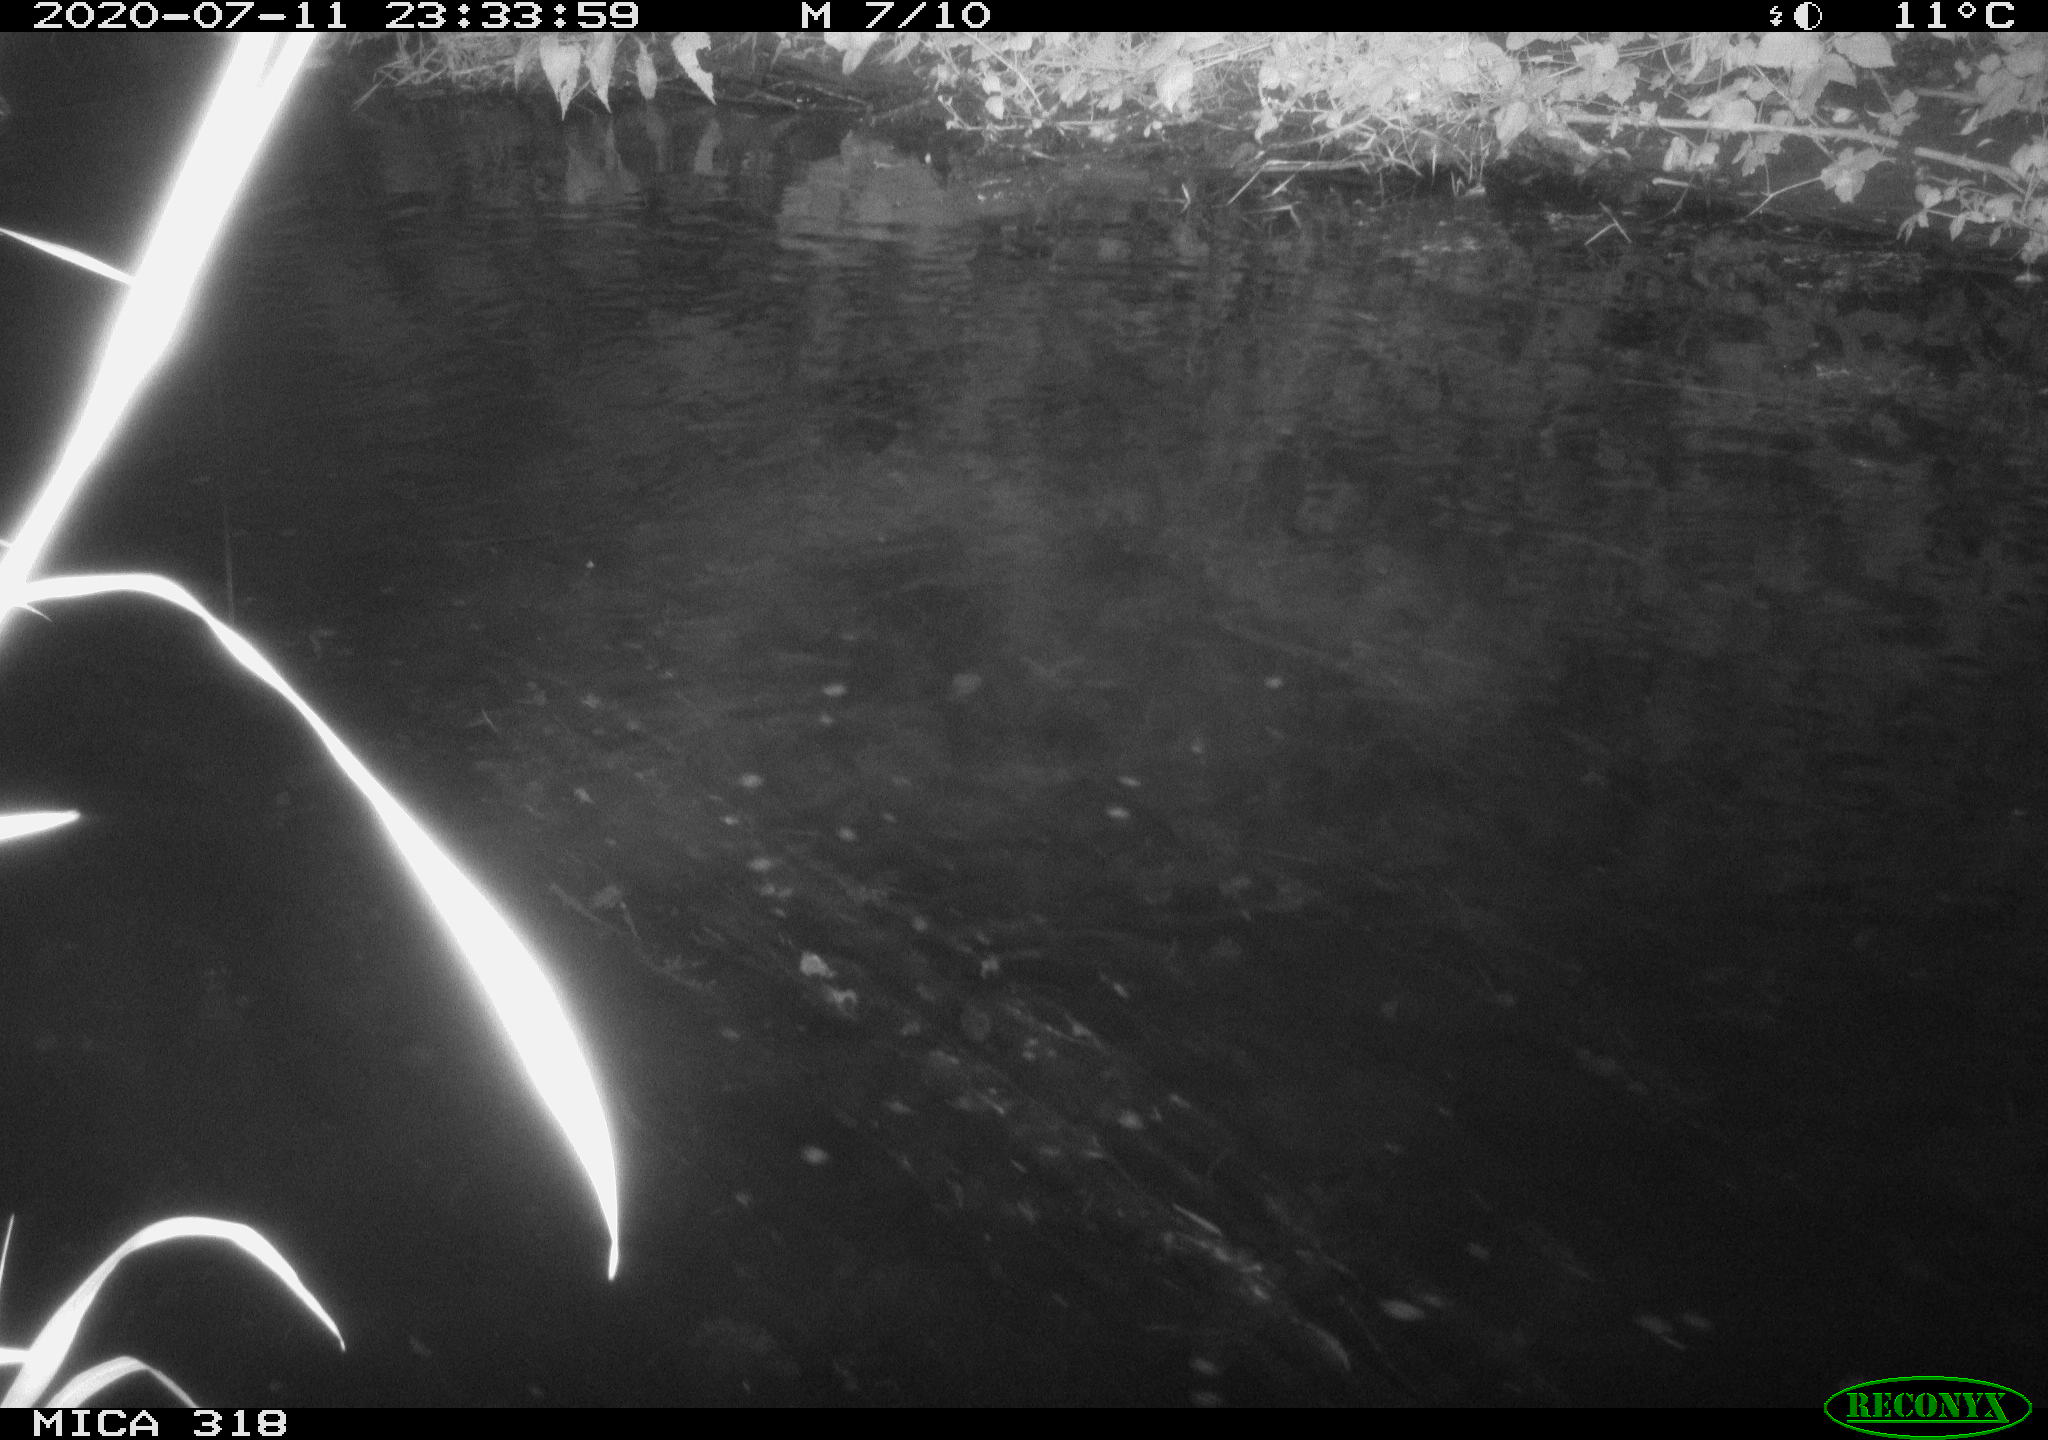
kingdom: Animalia
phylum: Chordata
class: Aves
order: Anseriformes
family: Anatidae
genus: Mareca
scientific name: Mareca strepera
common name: Gadwall
